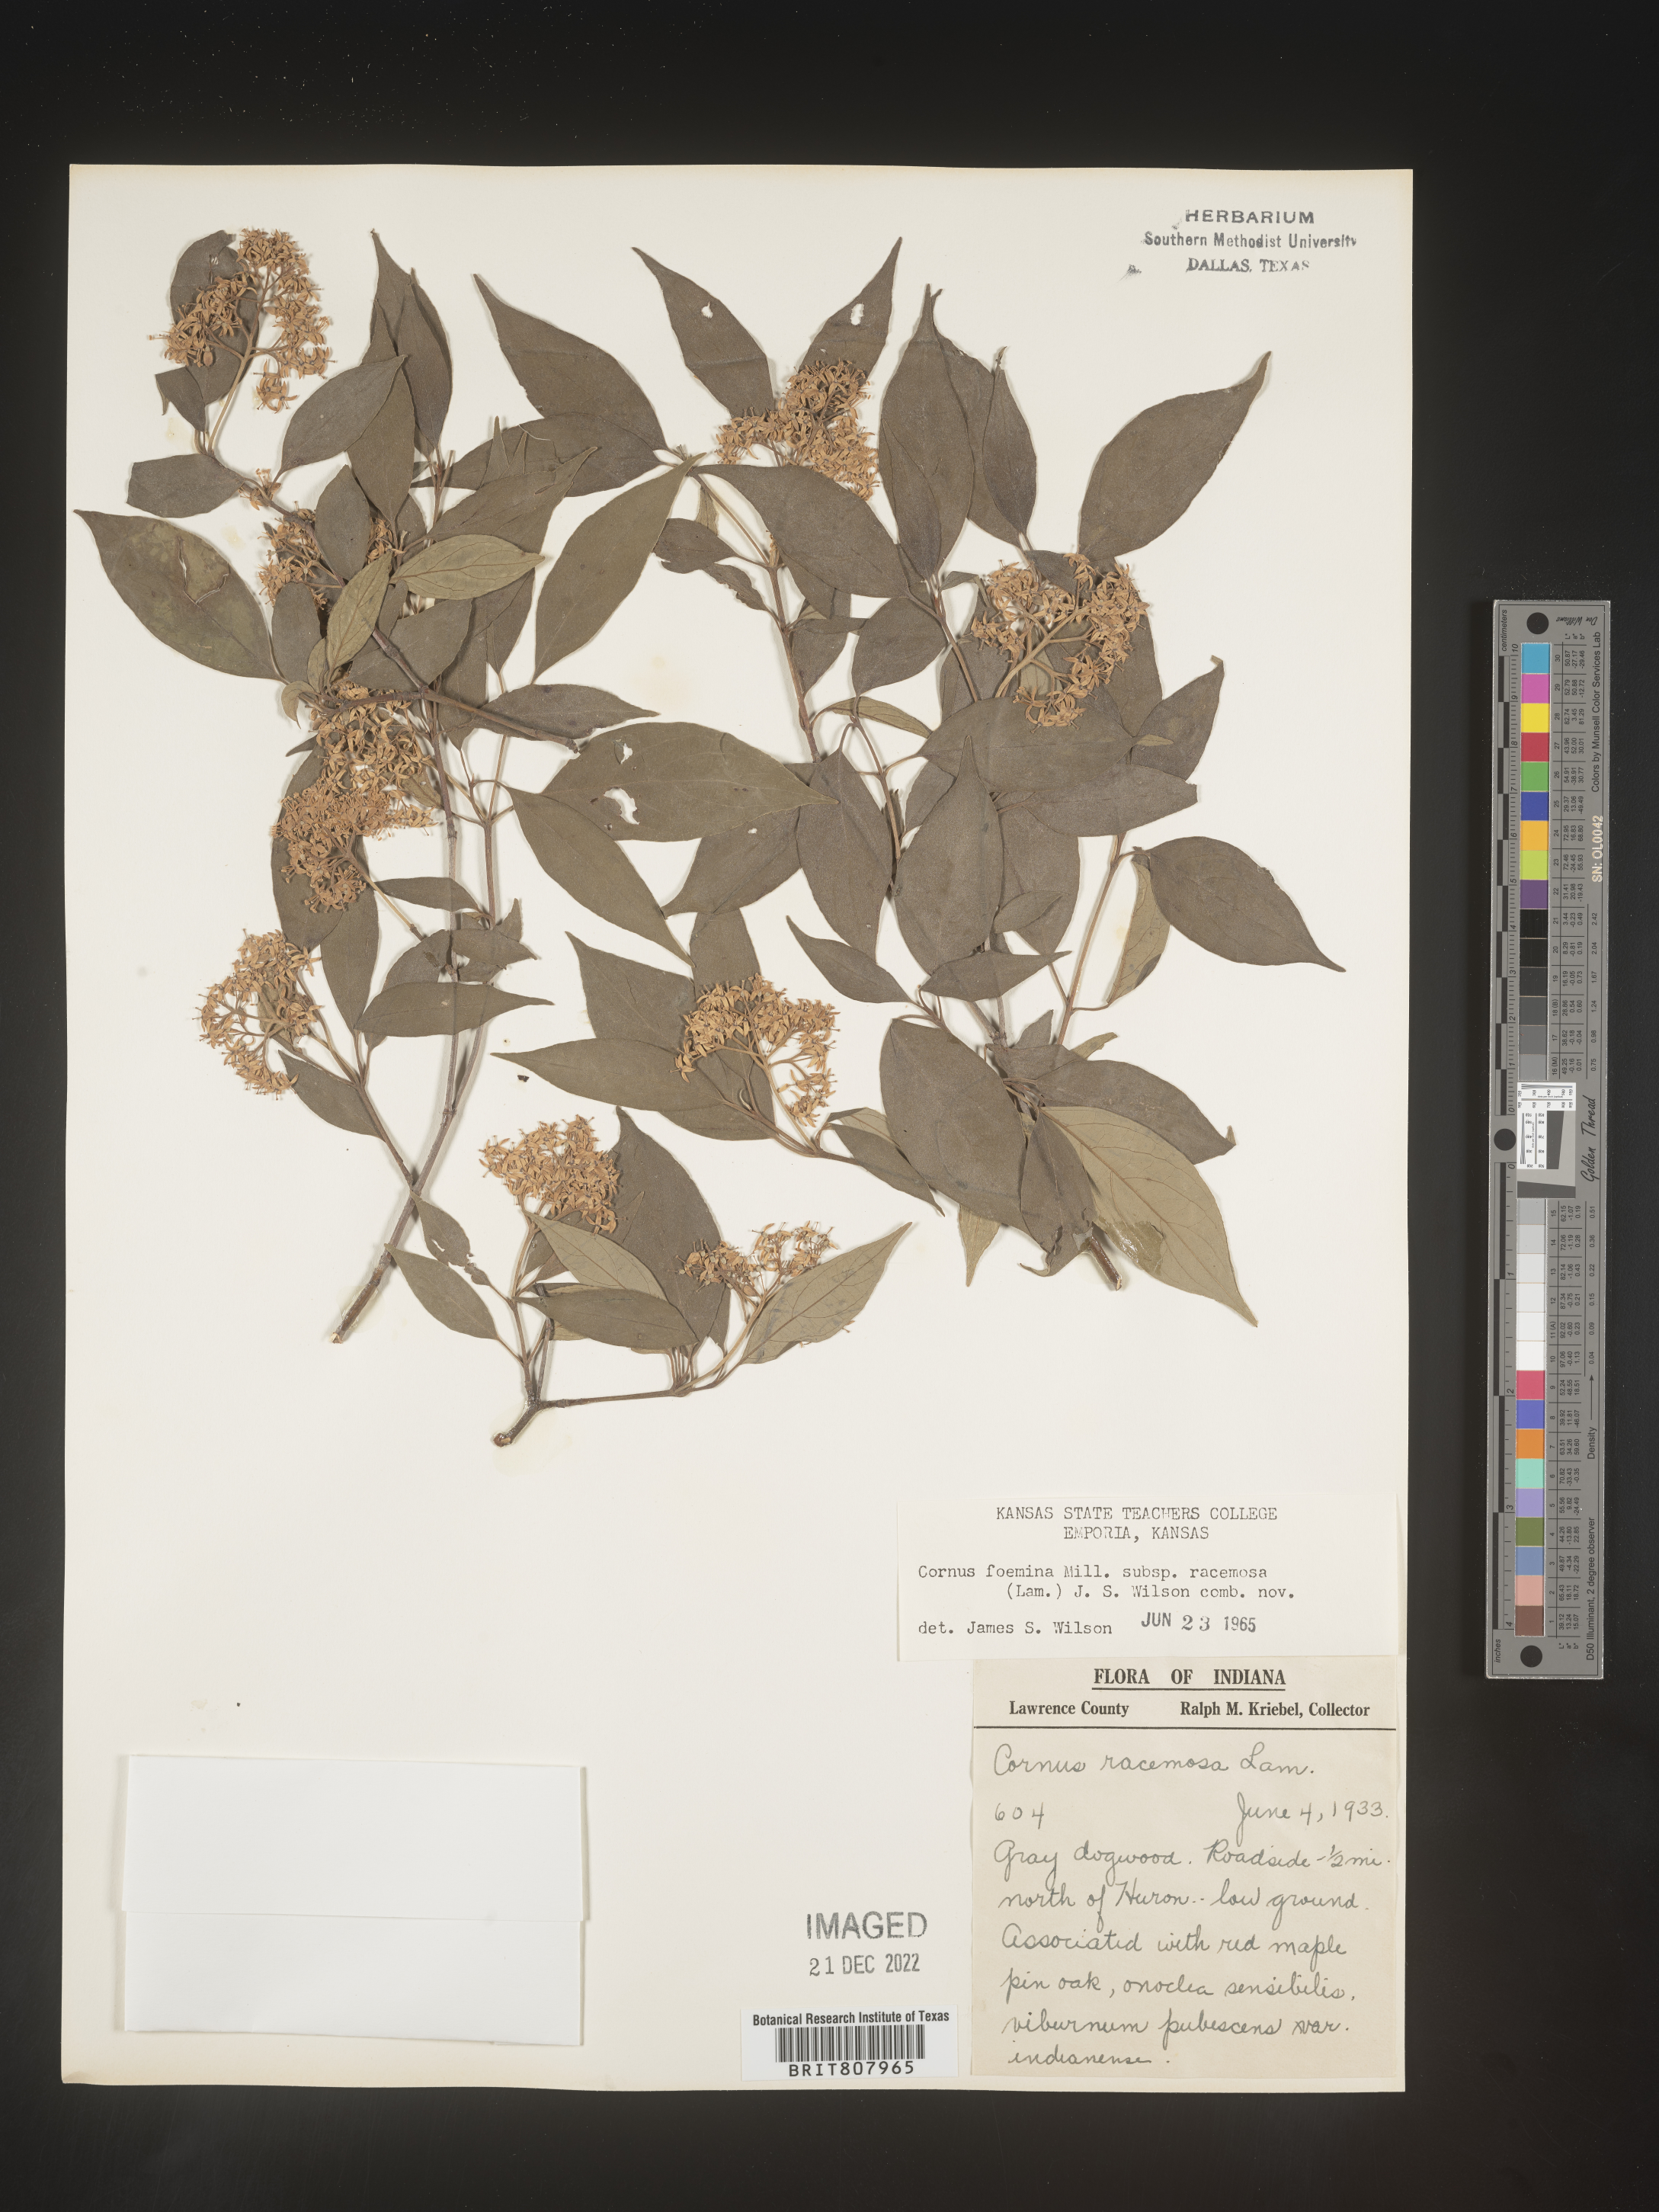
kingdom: Plantae
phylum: Tracheophyta
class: Magnoliopsida
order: Cornales
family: Cornaceae
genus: Cornus
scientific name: Cornus racemosa
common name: Panicled dogwood
